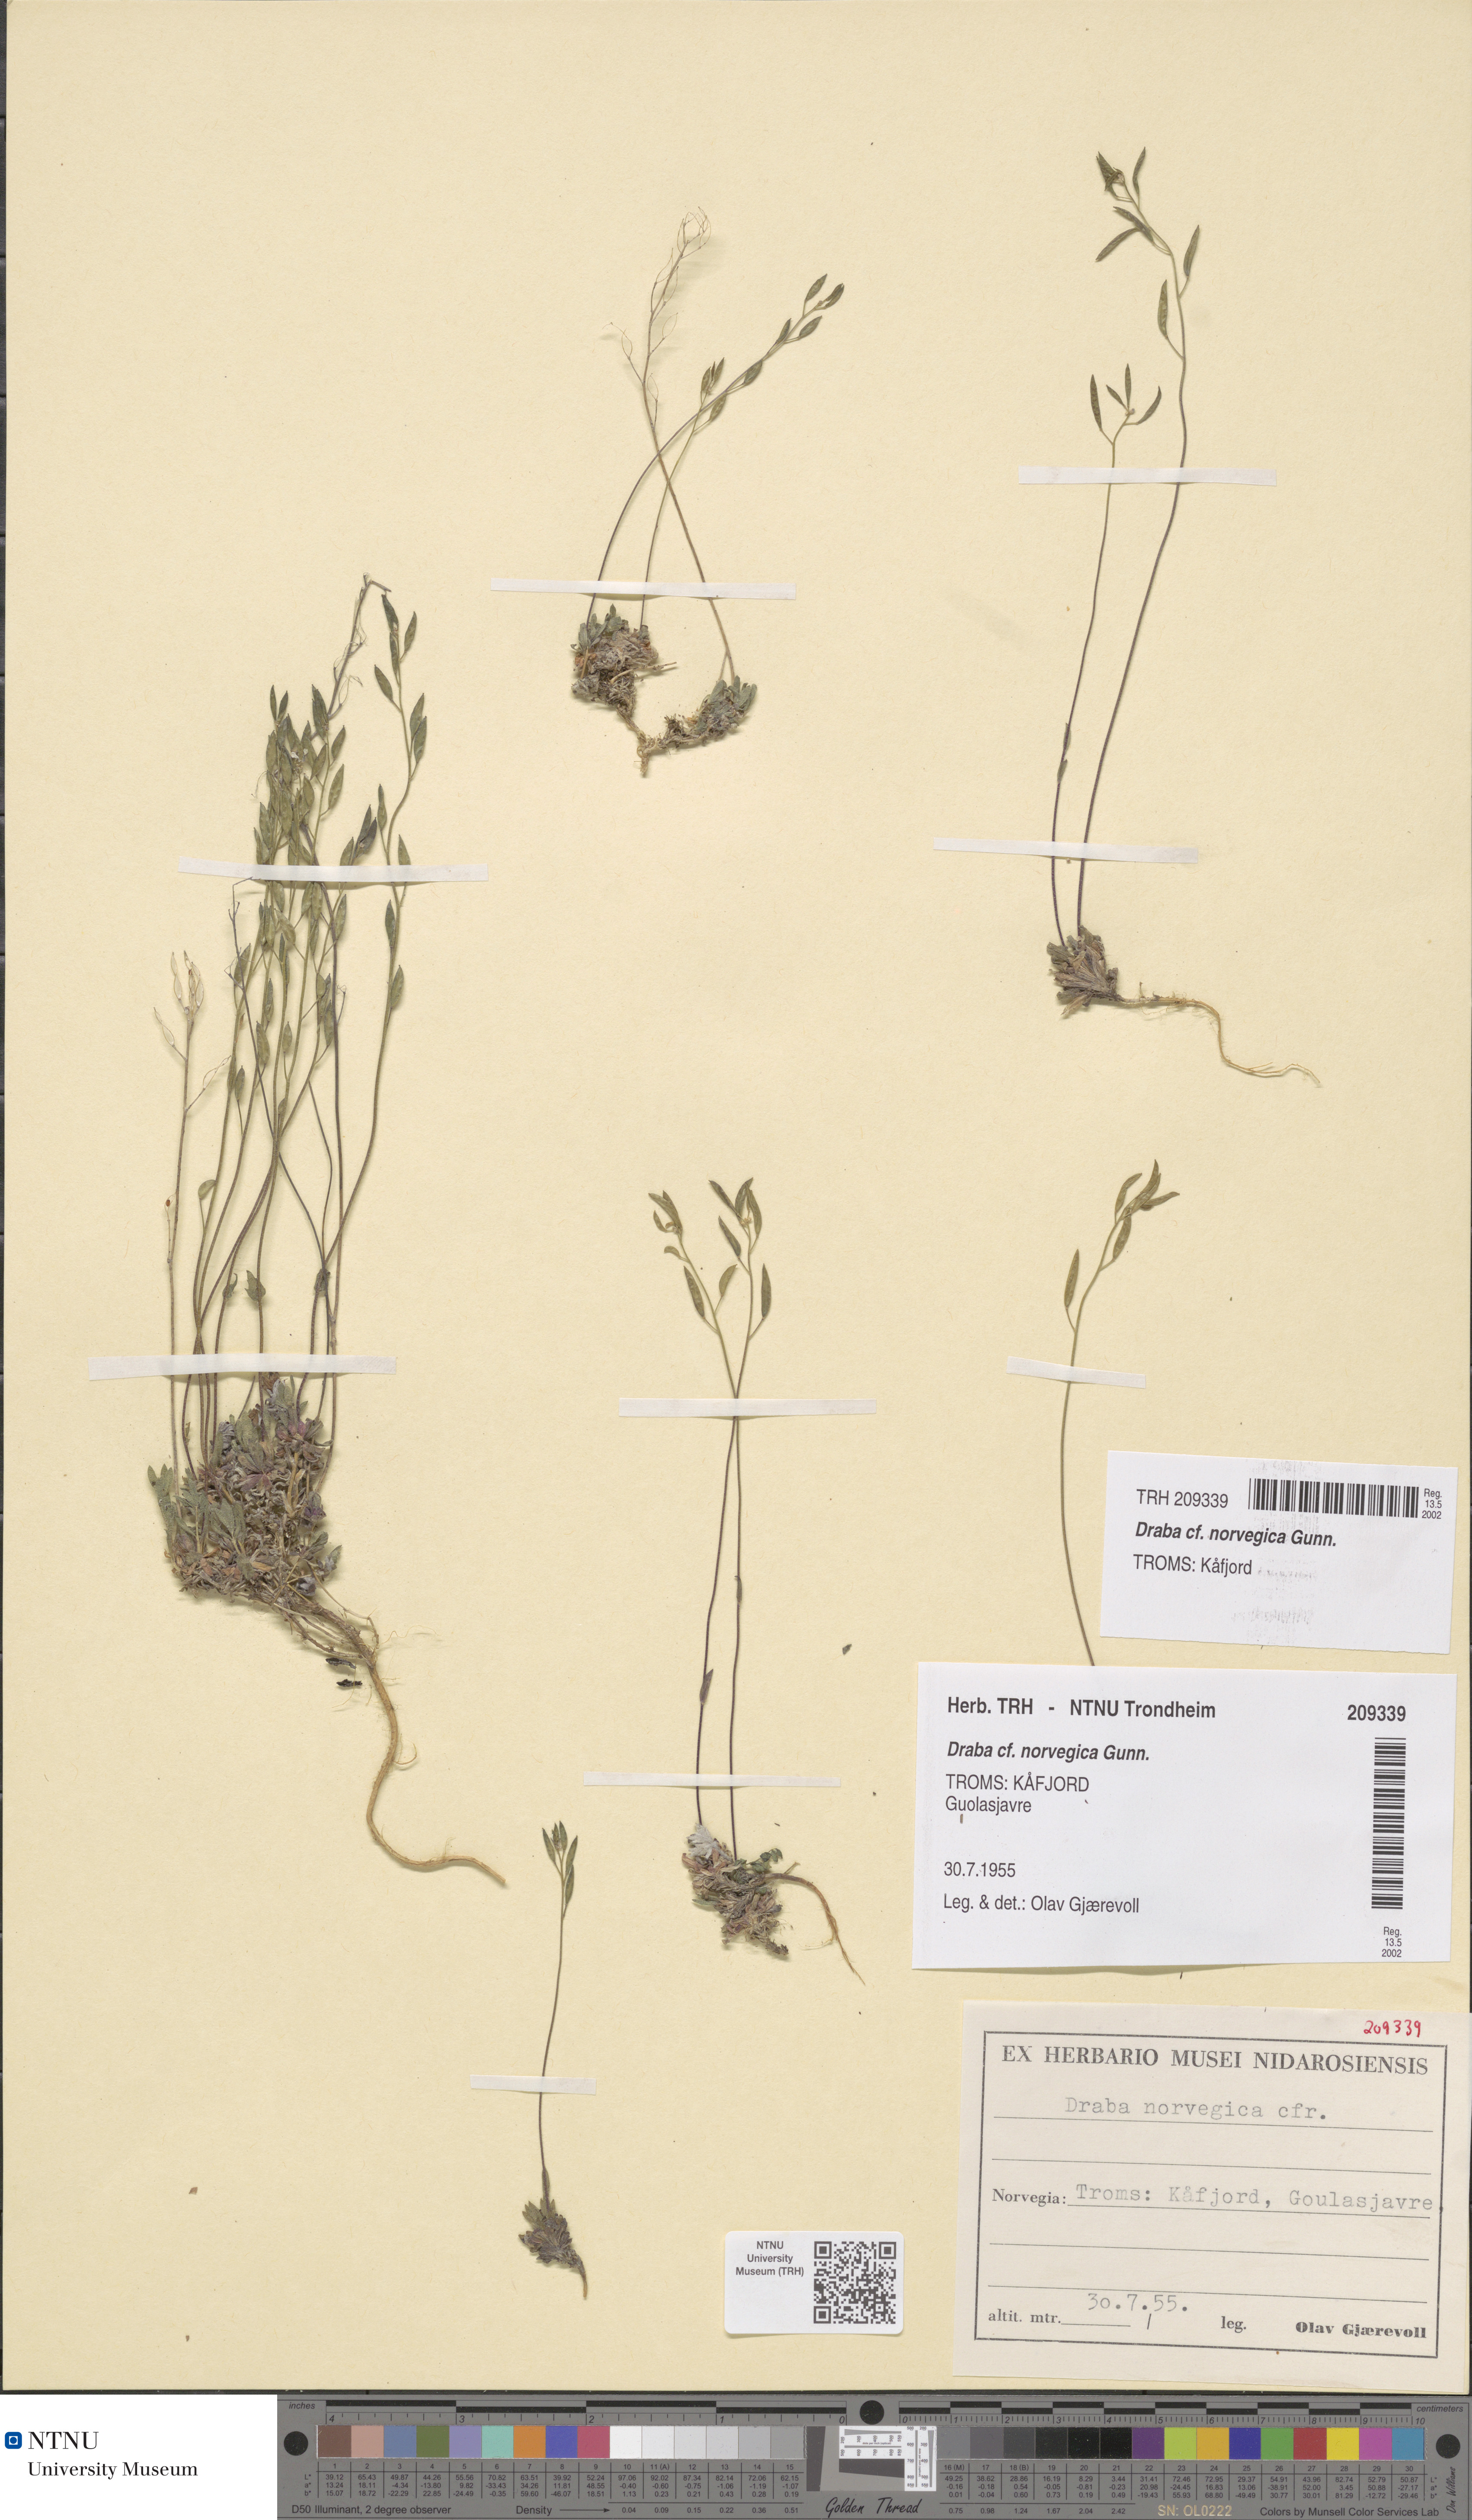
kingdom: Plantae
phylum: Tracheophyta
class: Magnoliopsida
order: Brassicales
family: Brassicaceae
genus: Draba
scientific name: Draba norvegica
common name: Rock whitlowgrass
